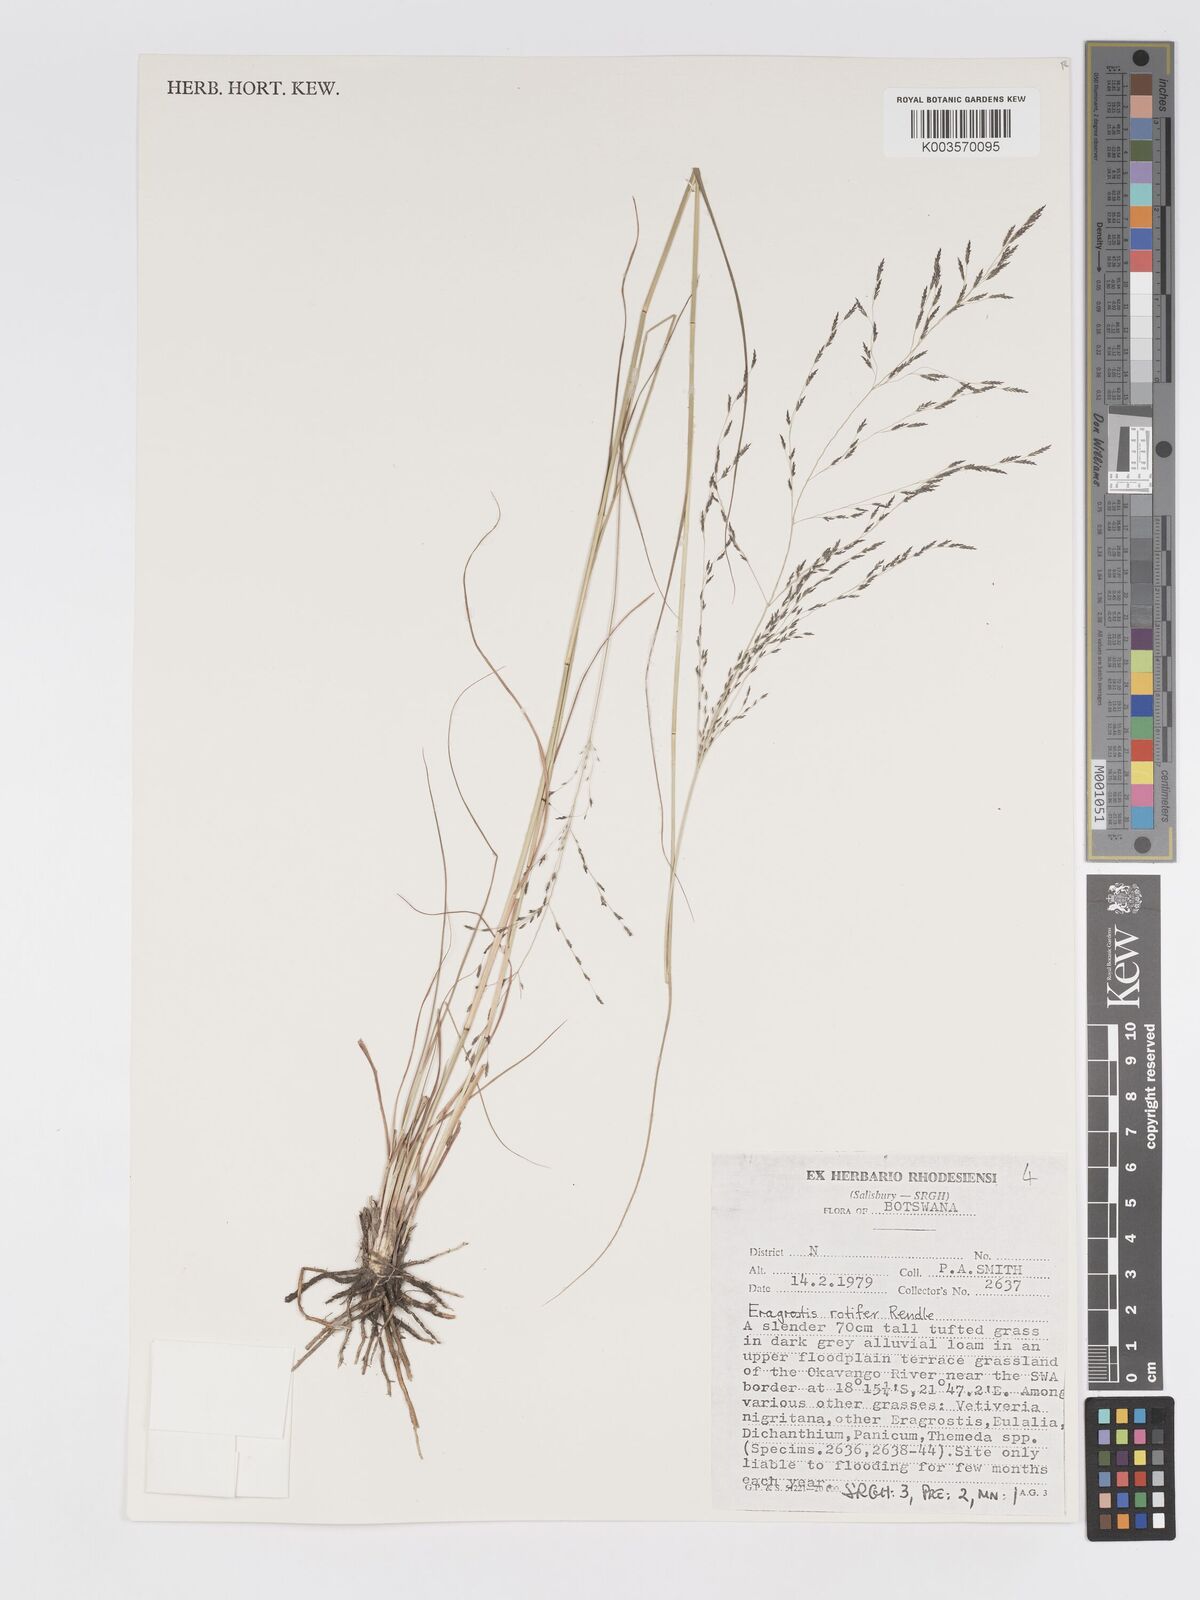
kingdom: Plantae
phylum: Tracheophyta
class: Liliopsida
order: Poales
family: Poaceae
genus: Eragrostis
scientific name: Eragrostis rotifer
